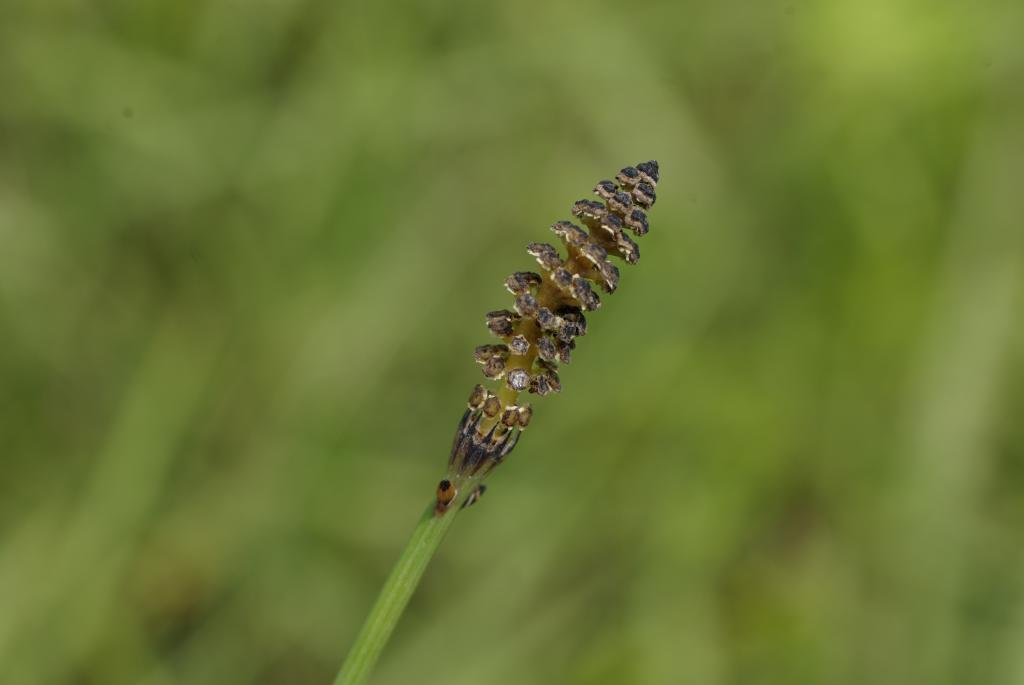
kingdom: Plantae
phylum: Tracheophyta
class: Polypodiopsida
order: Equisetales
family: Equisetaceae
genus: Equisetum
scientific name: Equisetum ramosissimum
